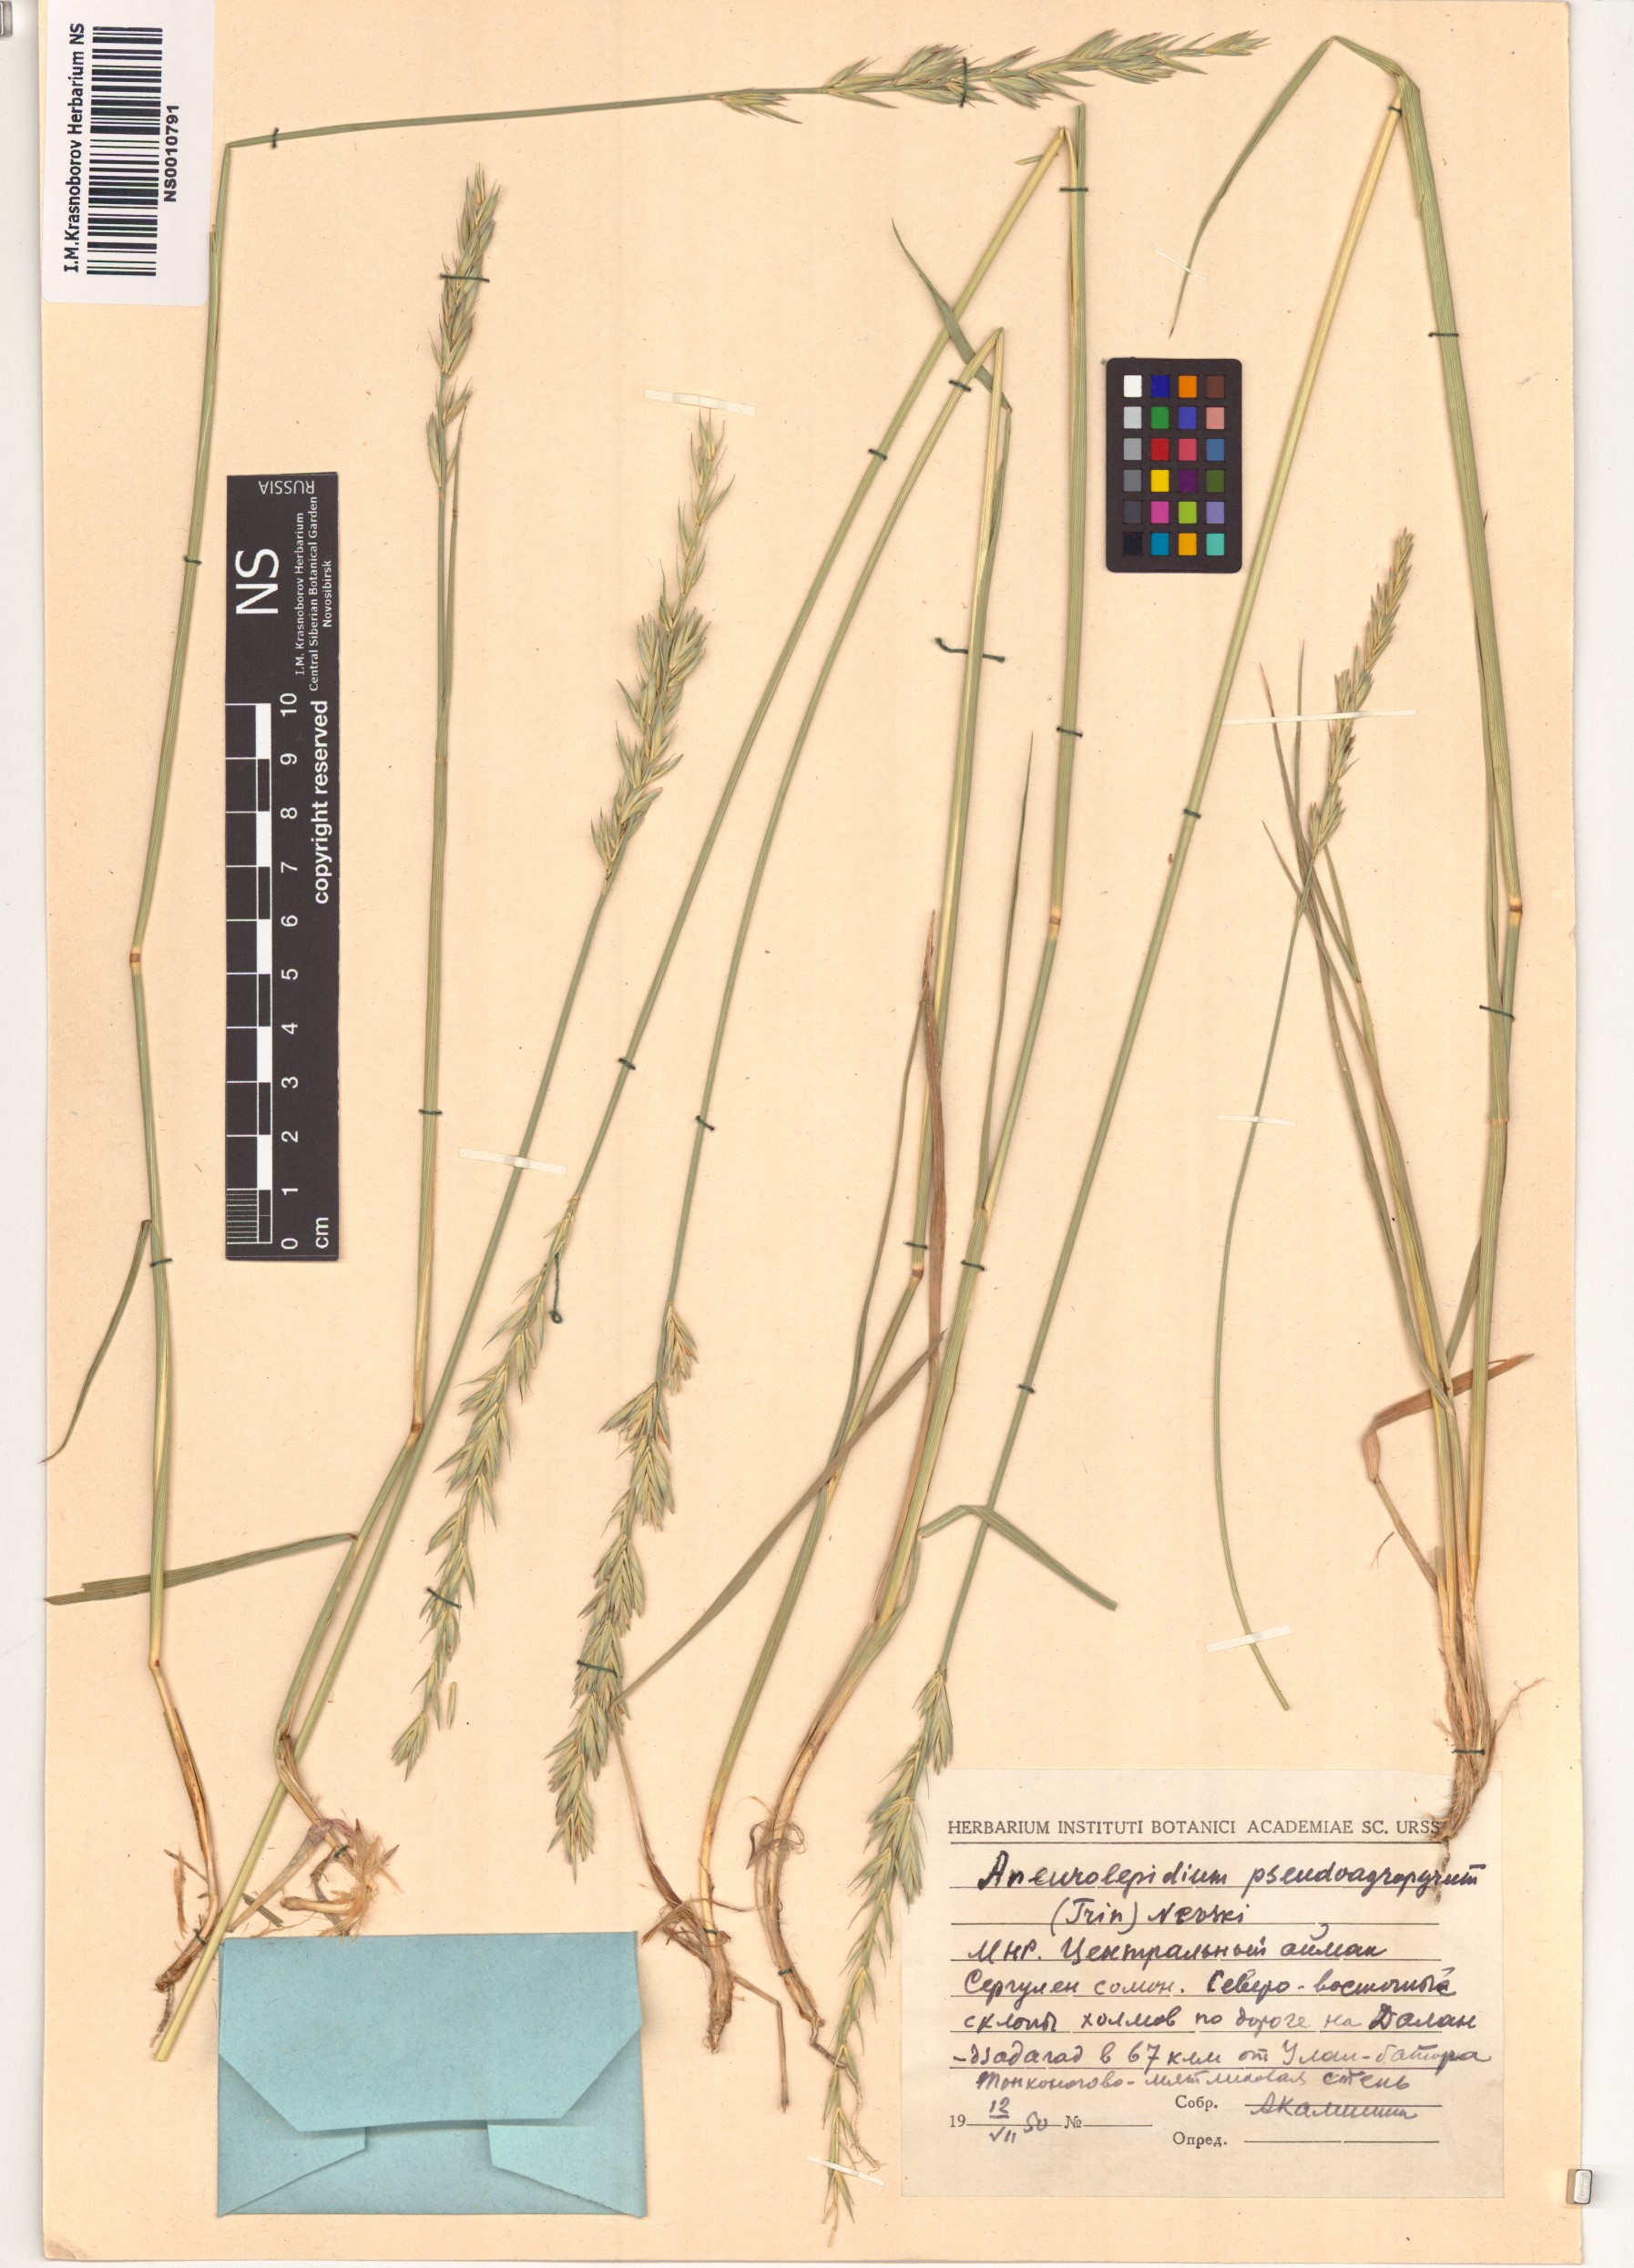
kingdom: Plantae
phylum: Tracheophyta
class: Liliopsida
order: Poales
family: Poaceae
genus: Leymus
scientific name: Leymus chinensis
